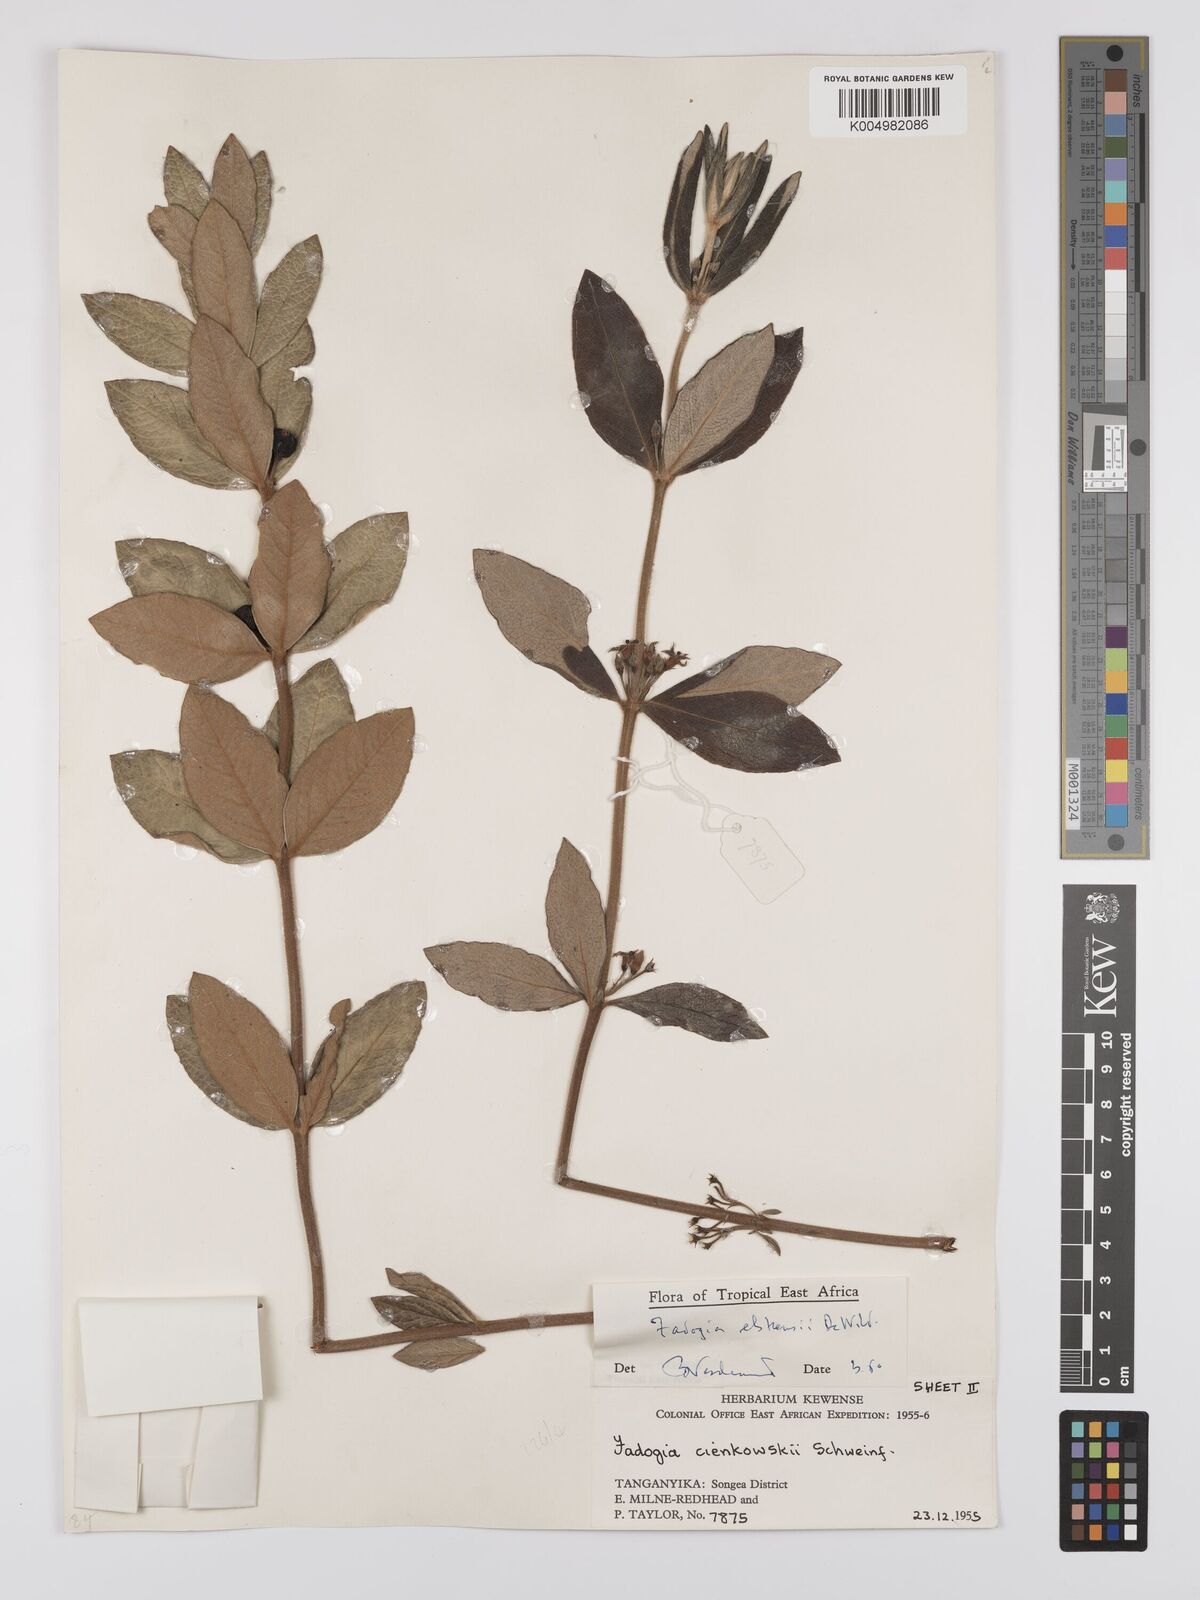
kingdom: Plantae
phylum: Tracheophyta
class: Magnoliopsida
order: Gentianales
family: Rubiaceae
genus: Fadogia
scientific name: Fadogia elskensii
